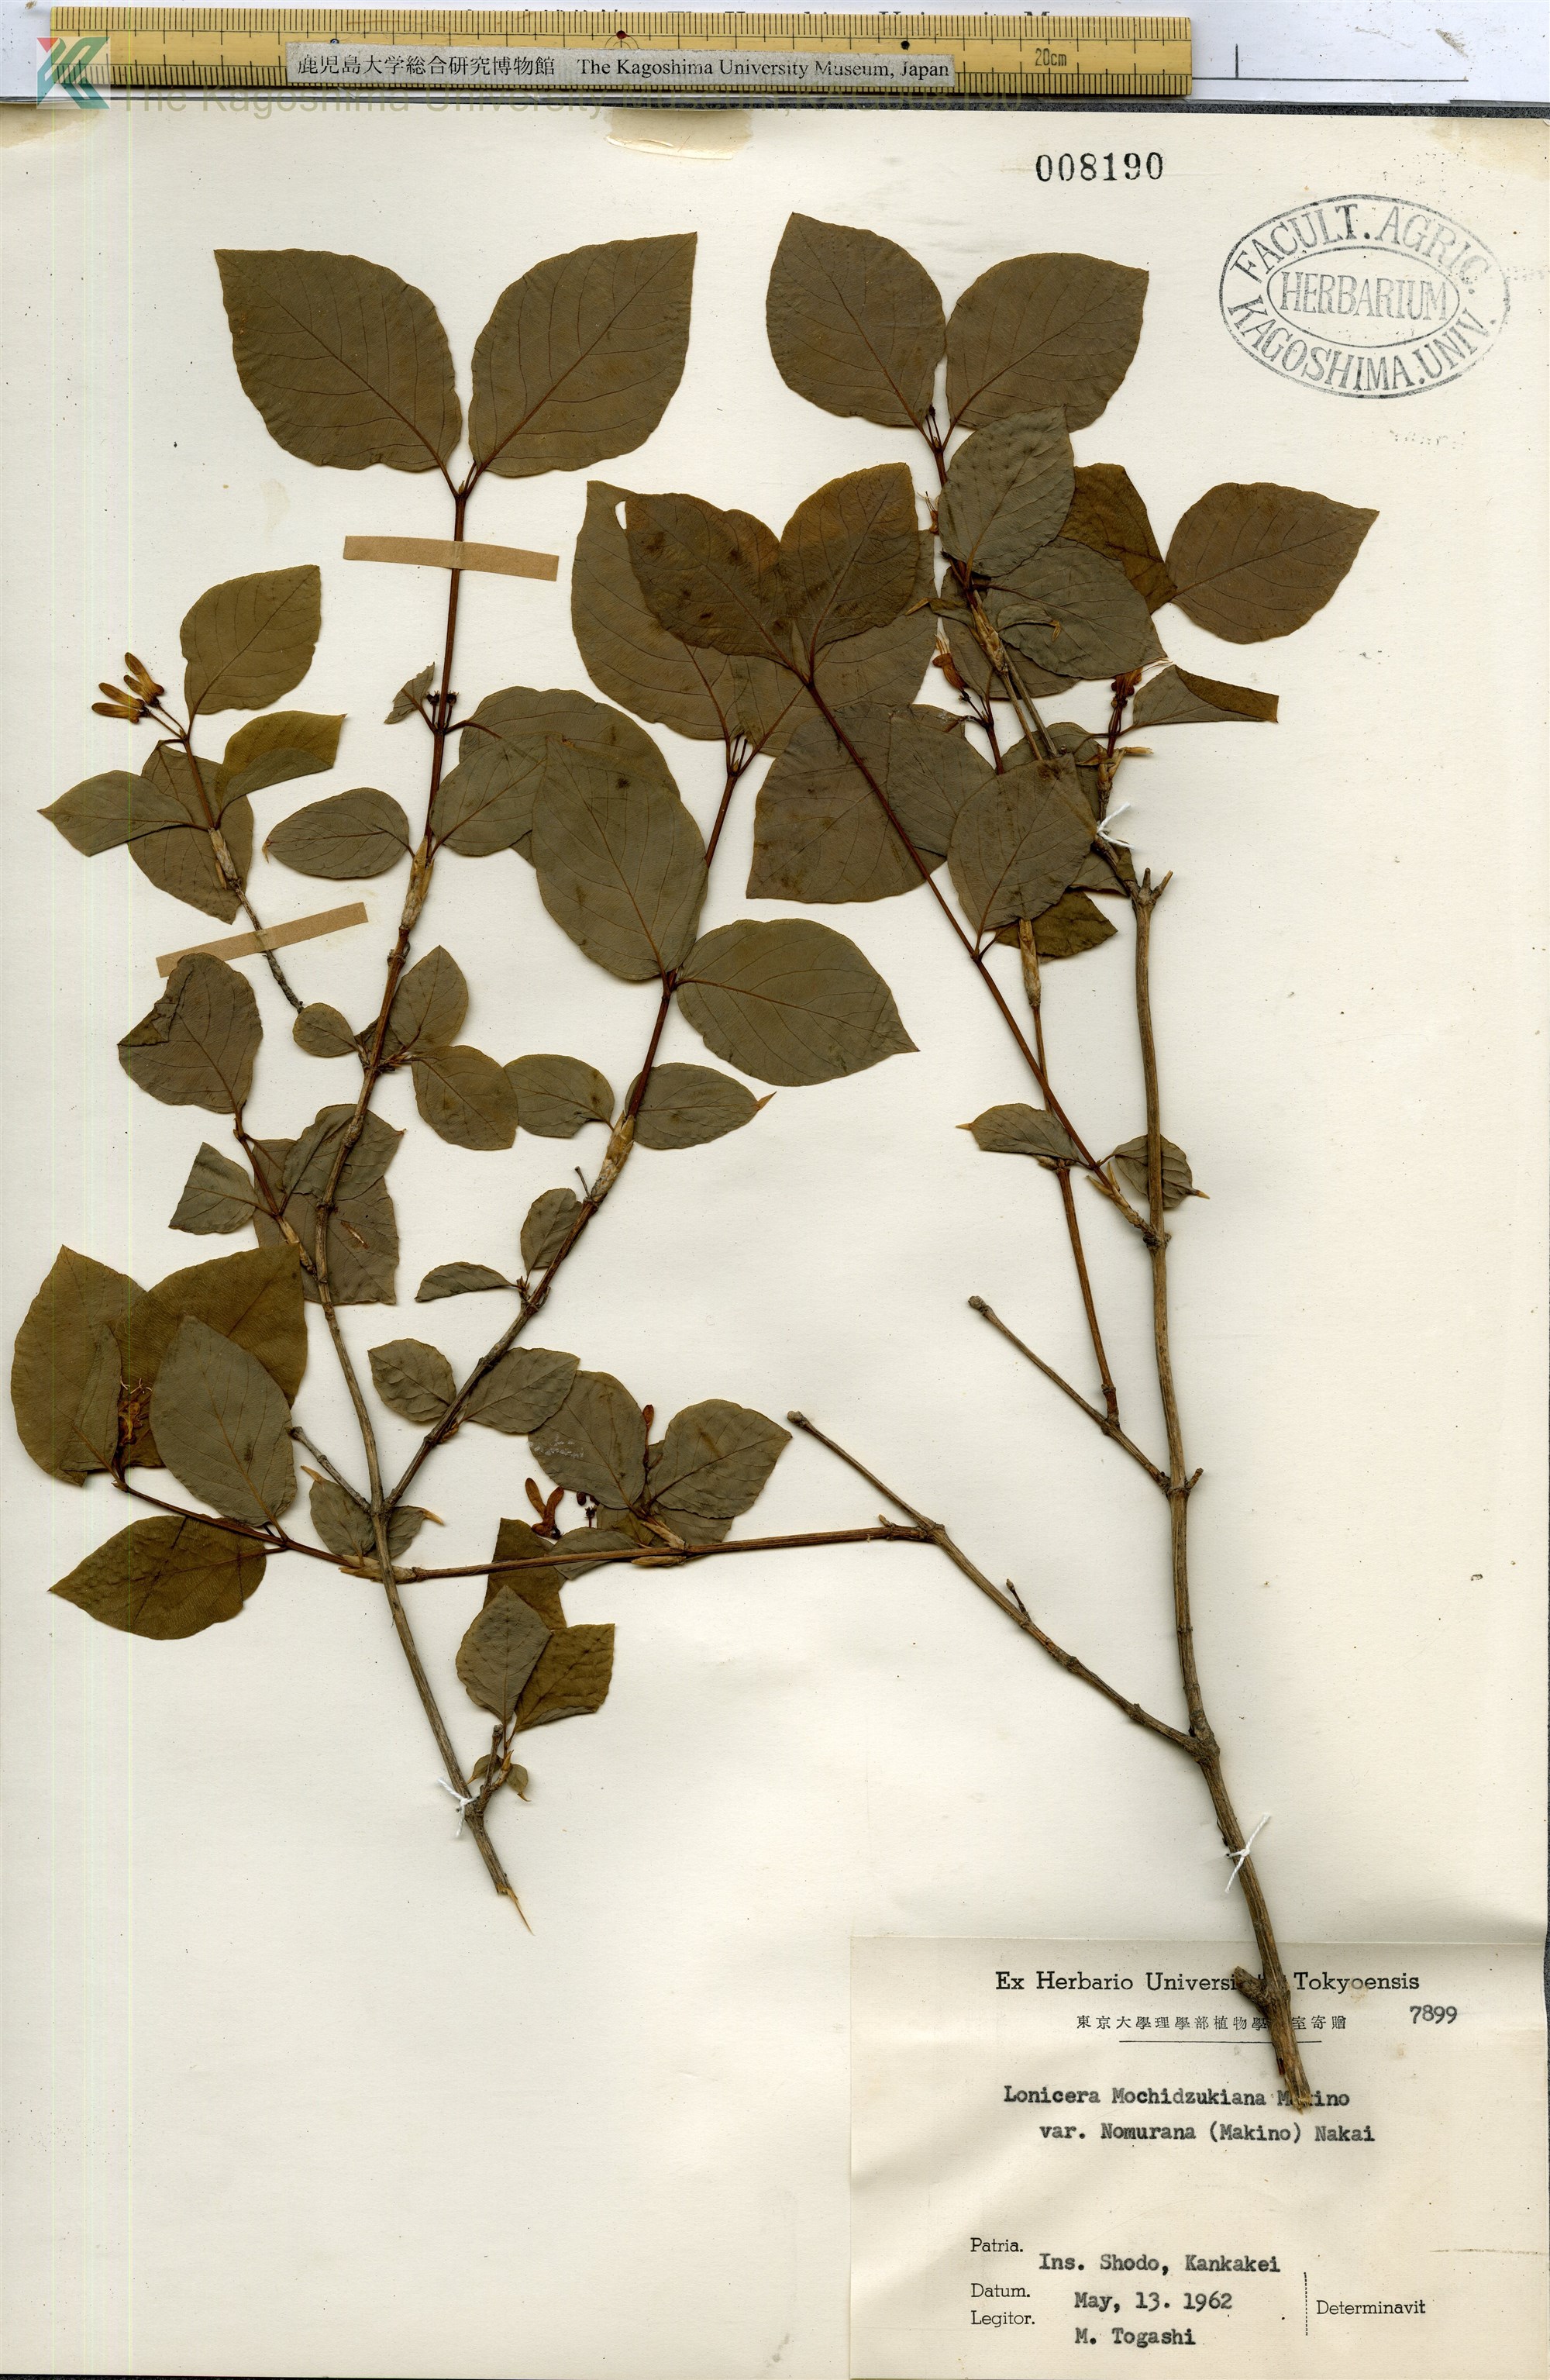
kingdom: Plantae
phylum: Tracheophyta
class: Magnoliopsida
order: Dipsacales
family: Caprifoliaceae
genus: Lonicera
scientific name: Lonicera subhispida
